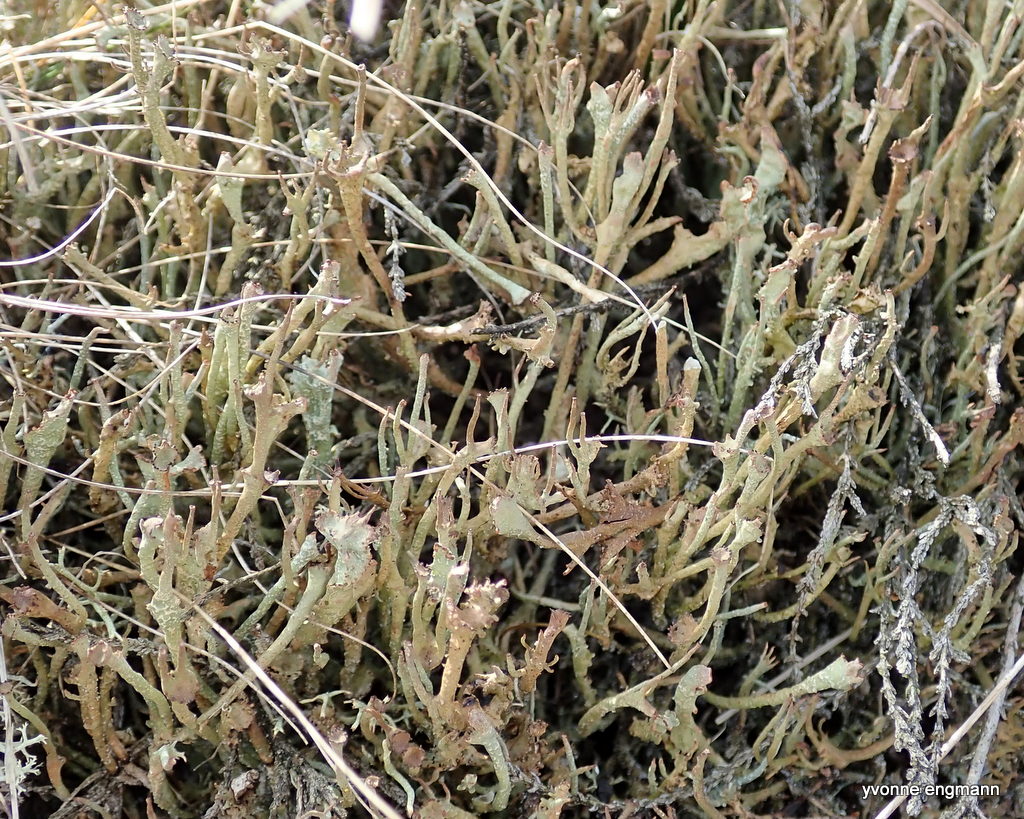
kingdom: Fungi
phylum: Ascomycota
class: Lecanoromycetes
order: Lecanorales
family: Cladoniaceae
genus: Cladonia
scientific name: Cladonia gracilis
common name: slank bægerlav
